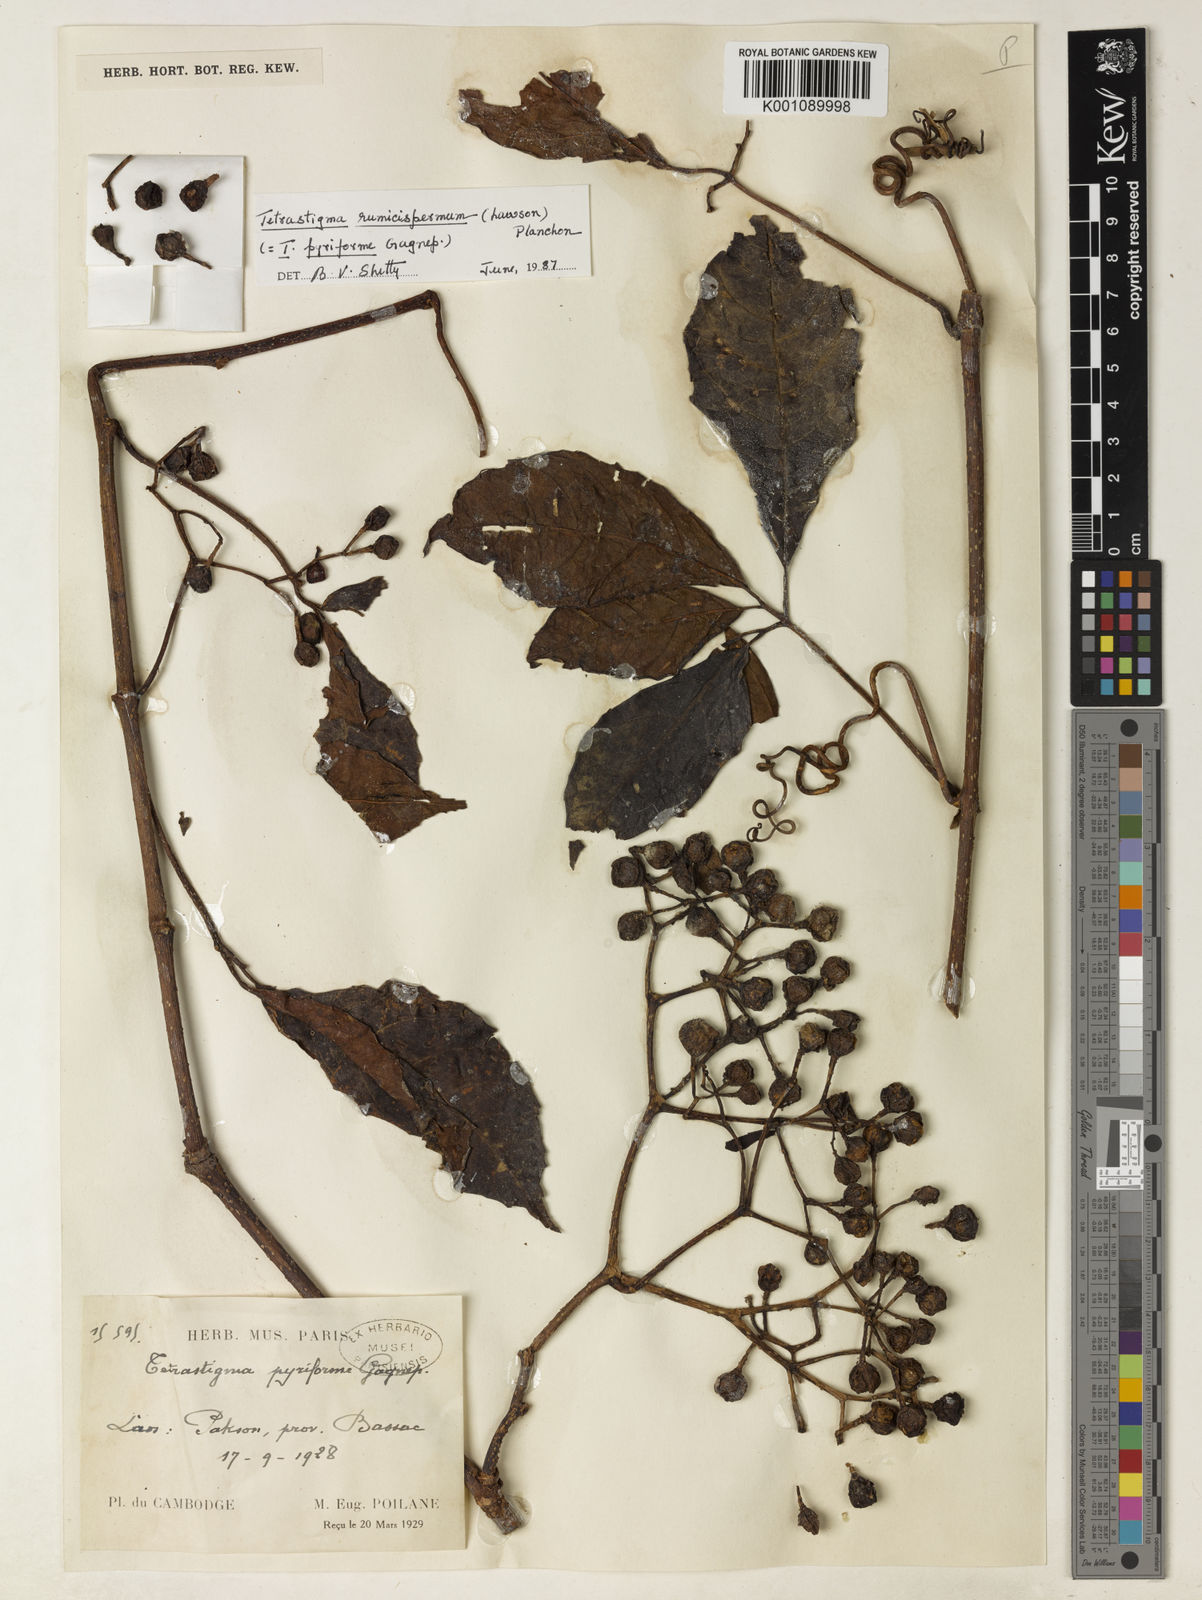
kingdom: Plantae
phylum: Tracheophyta
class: Magnoliopsida
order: Vitales
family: Vitaceae
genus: Tetrastigma
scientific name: Tetrastigma rumicispermum
